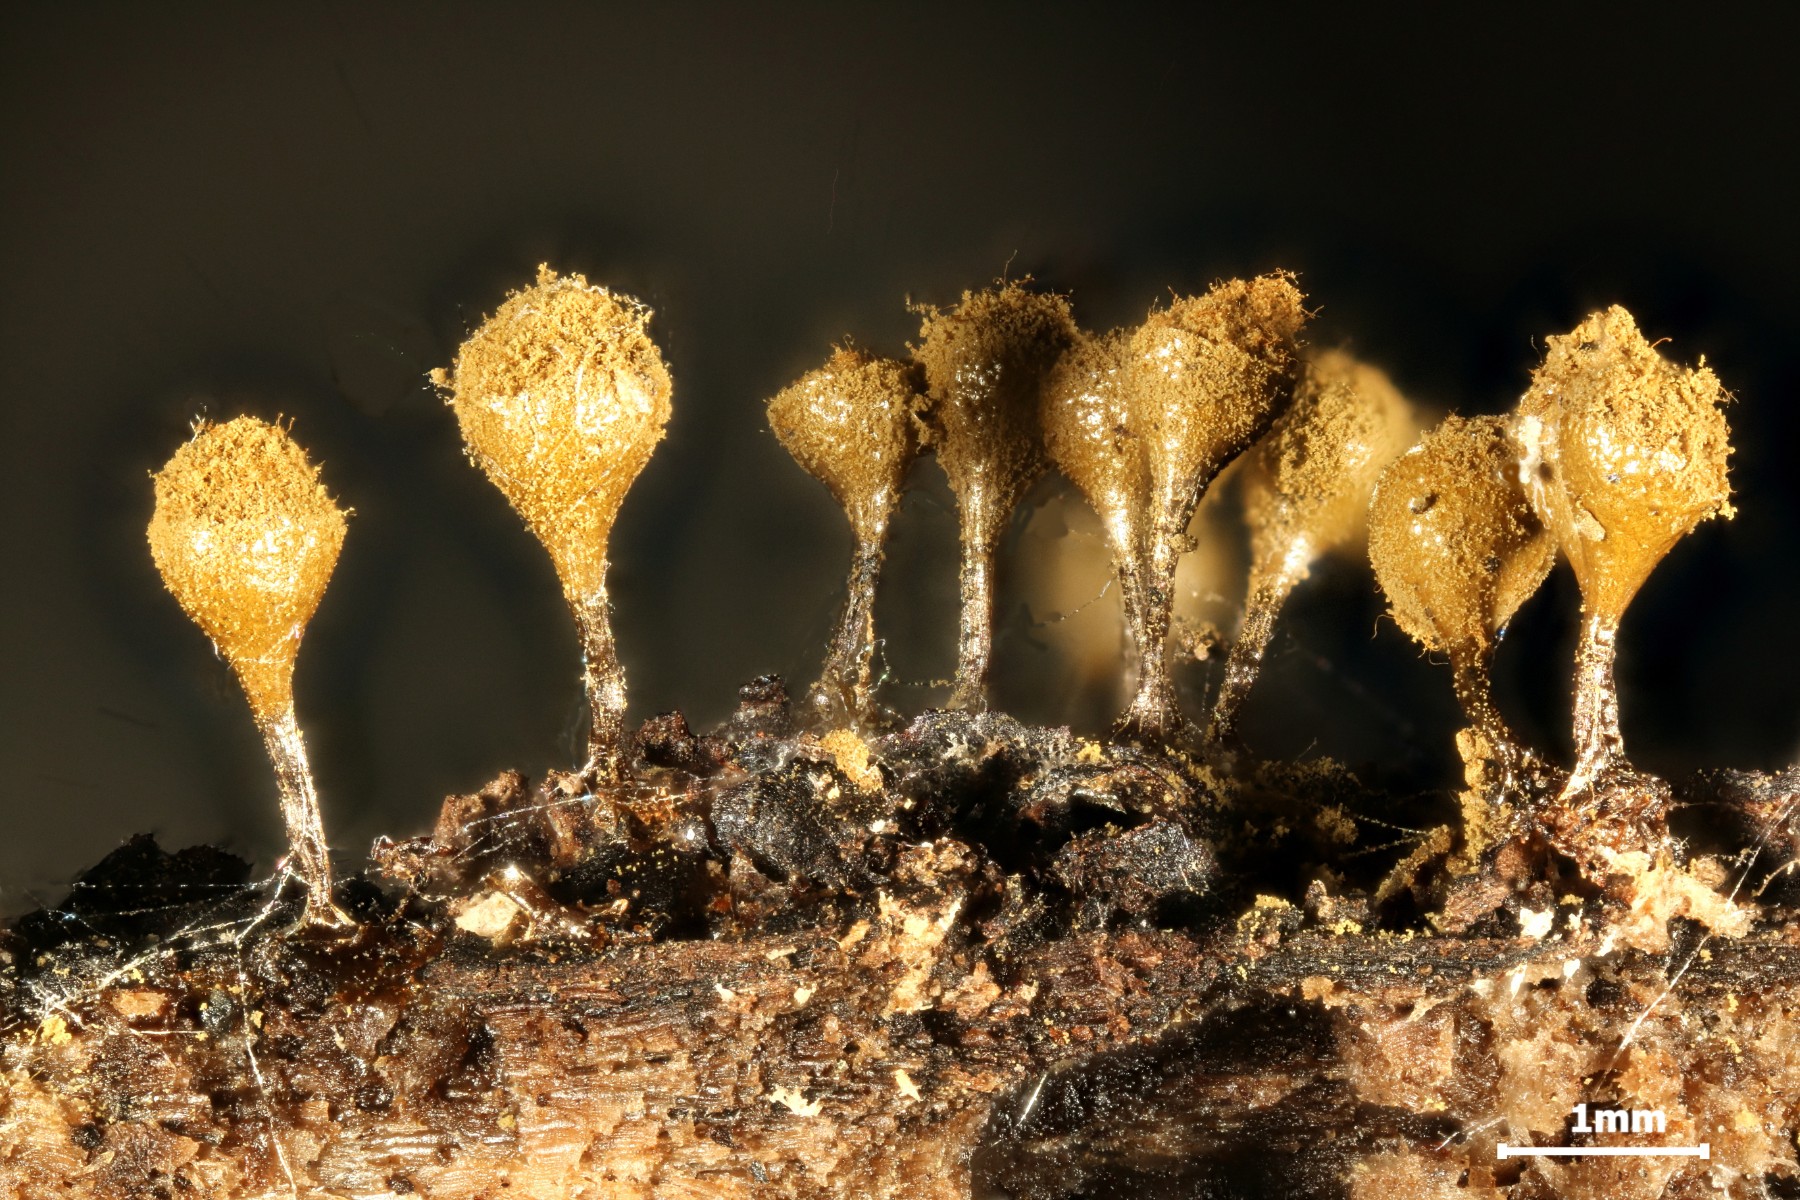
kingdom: Protozoa
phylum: Mycetozoa
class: Myxomycetes
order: Trichiales
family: Arcyriaceae
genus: Hemitrichia
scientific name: Hemitrichia decipiens
